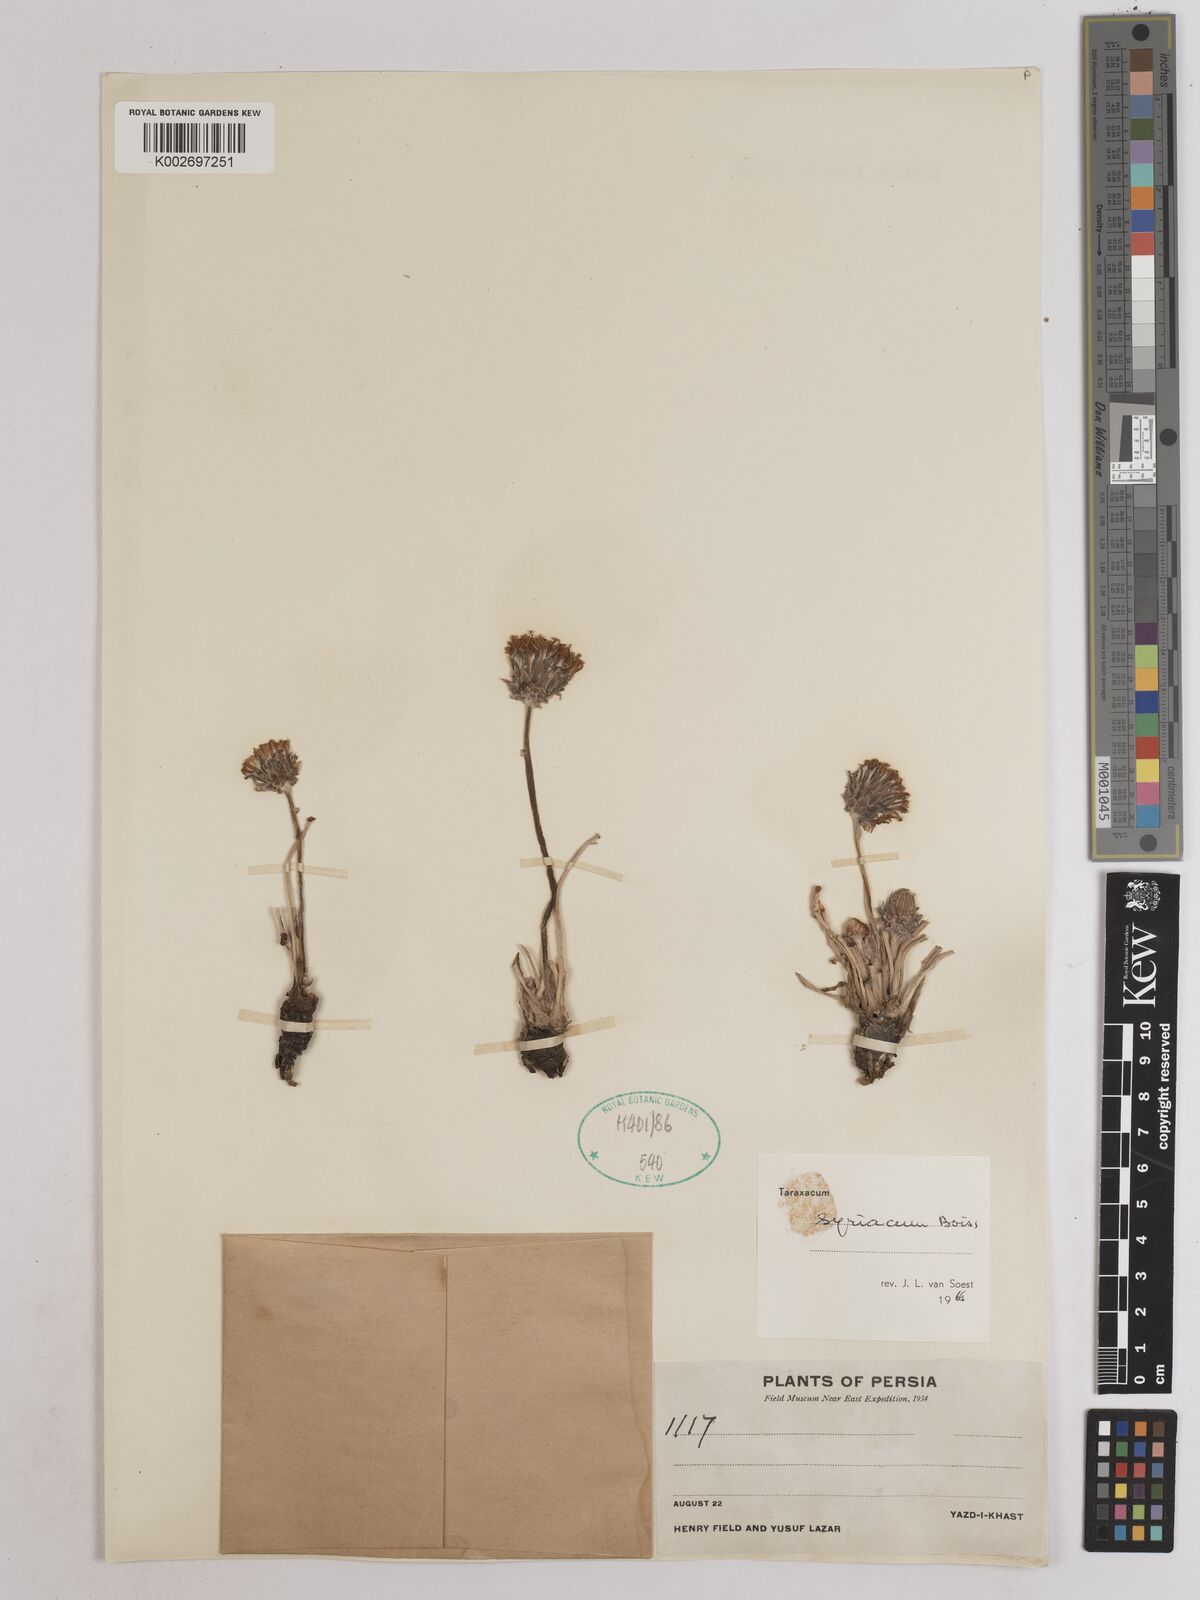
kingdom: Plantae
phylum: Tracheophyta
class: Magnoliopsida
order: Asterales
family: Asteraceae
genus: Taraxacum
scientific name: Taraxacum syriacum
